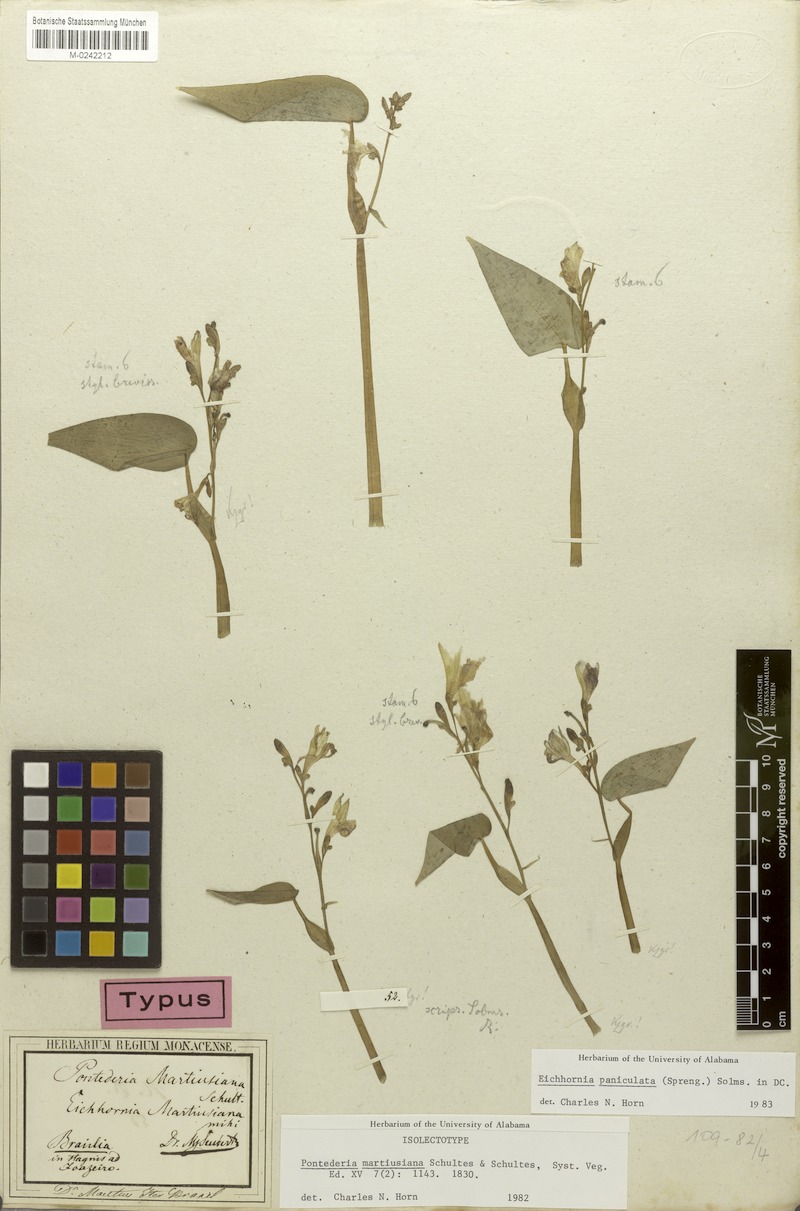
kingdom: Plantae
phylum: Tracheophyta
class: Liliopsida
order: Commelinales
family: Pontederiaceae
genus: Pontederia
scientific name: Pontederia paniculata
